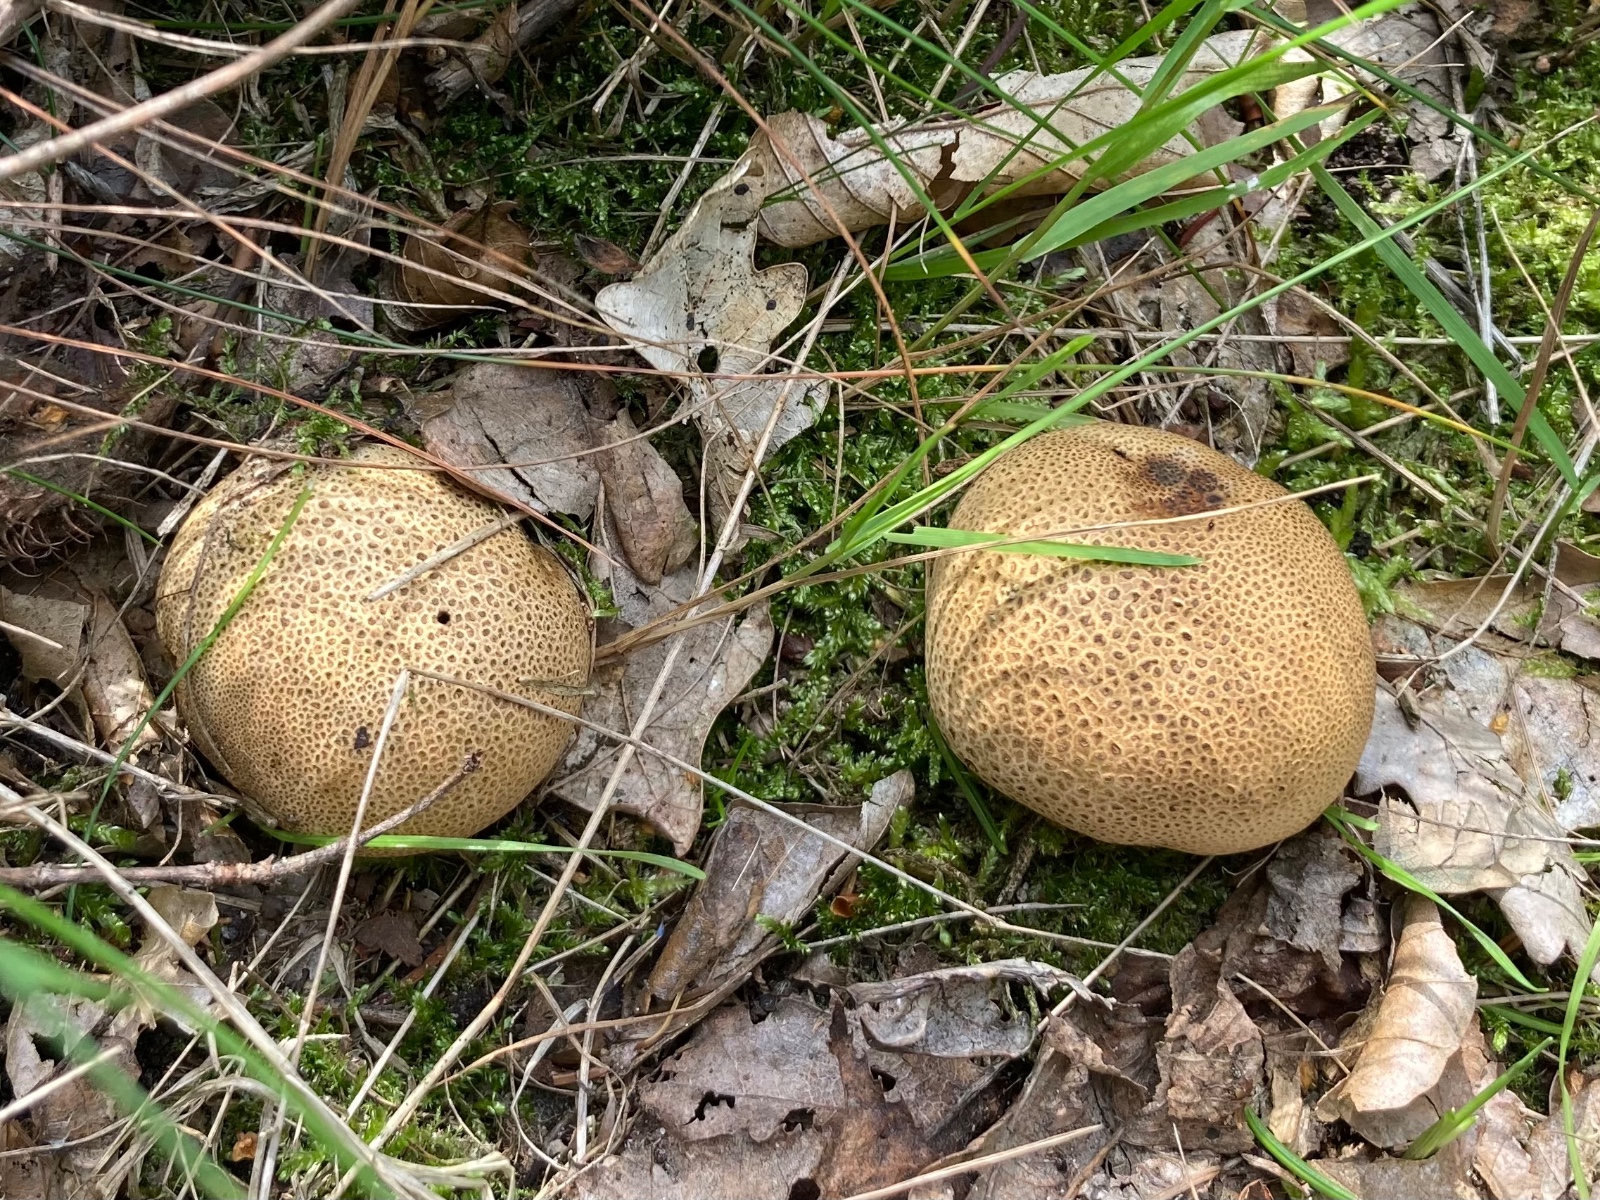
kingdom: Fungi
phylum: Basidiomycota
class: Agaricomycetes
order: Boletales
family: Sclerodermataceae
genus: Scleroderma
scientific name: Scleroderma areolatum
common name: plettet bruskbold
